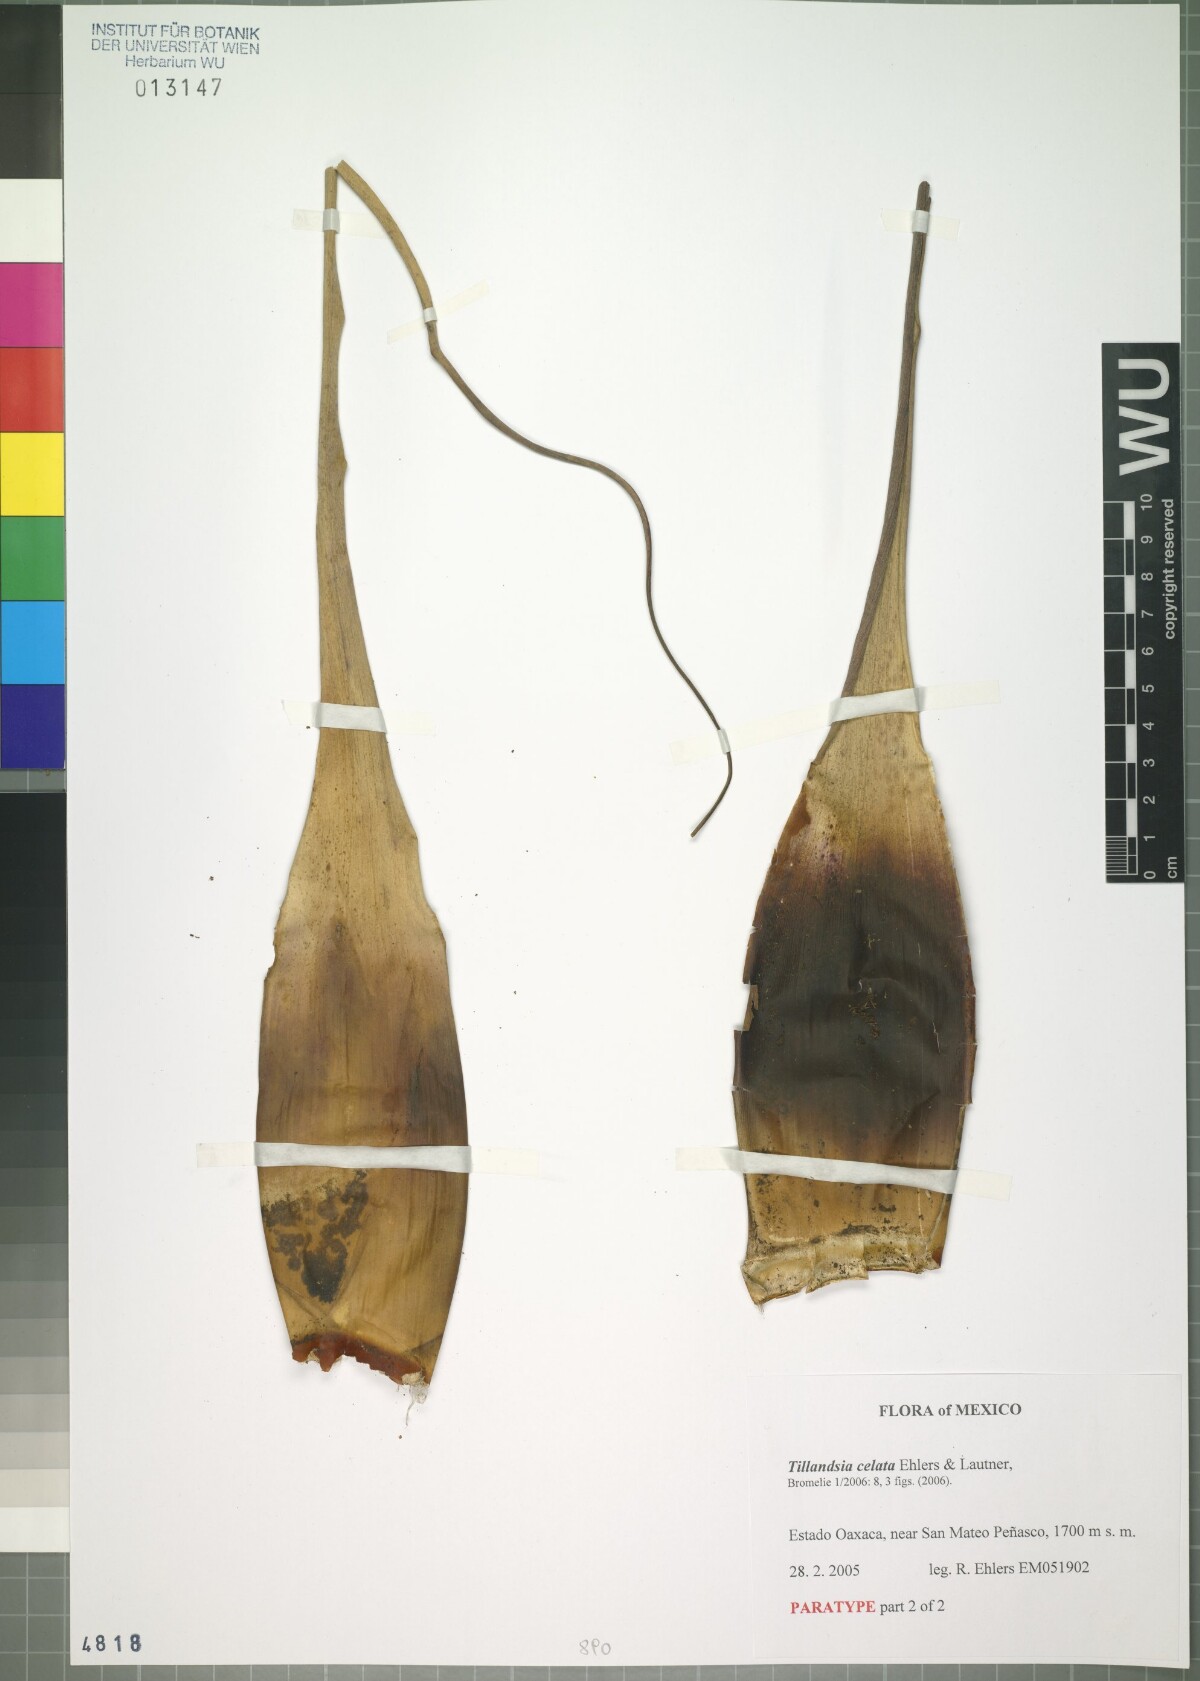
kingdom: Plantae
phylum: Tracheophyta
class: Liliopsida
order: Poales
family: Bromeliaceae
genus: Tillandsia
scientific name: Tillandsia celata
